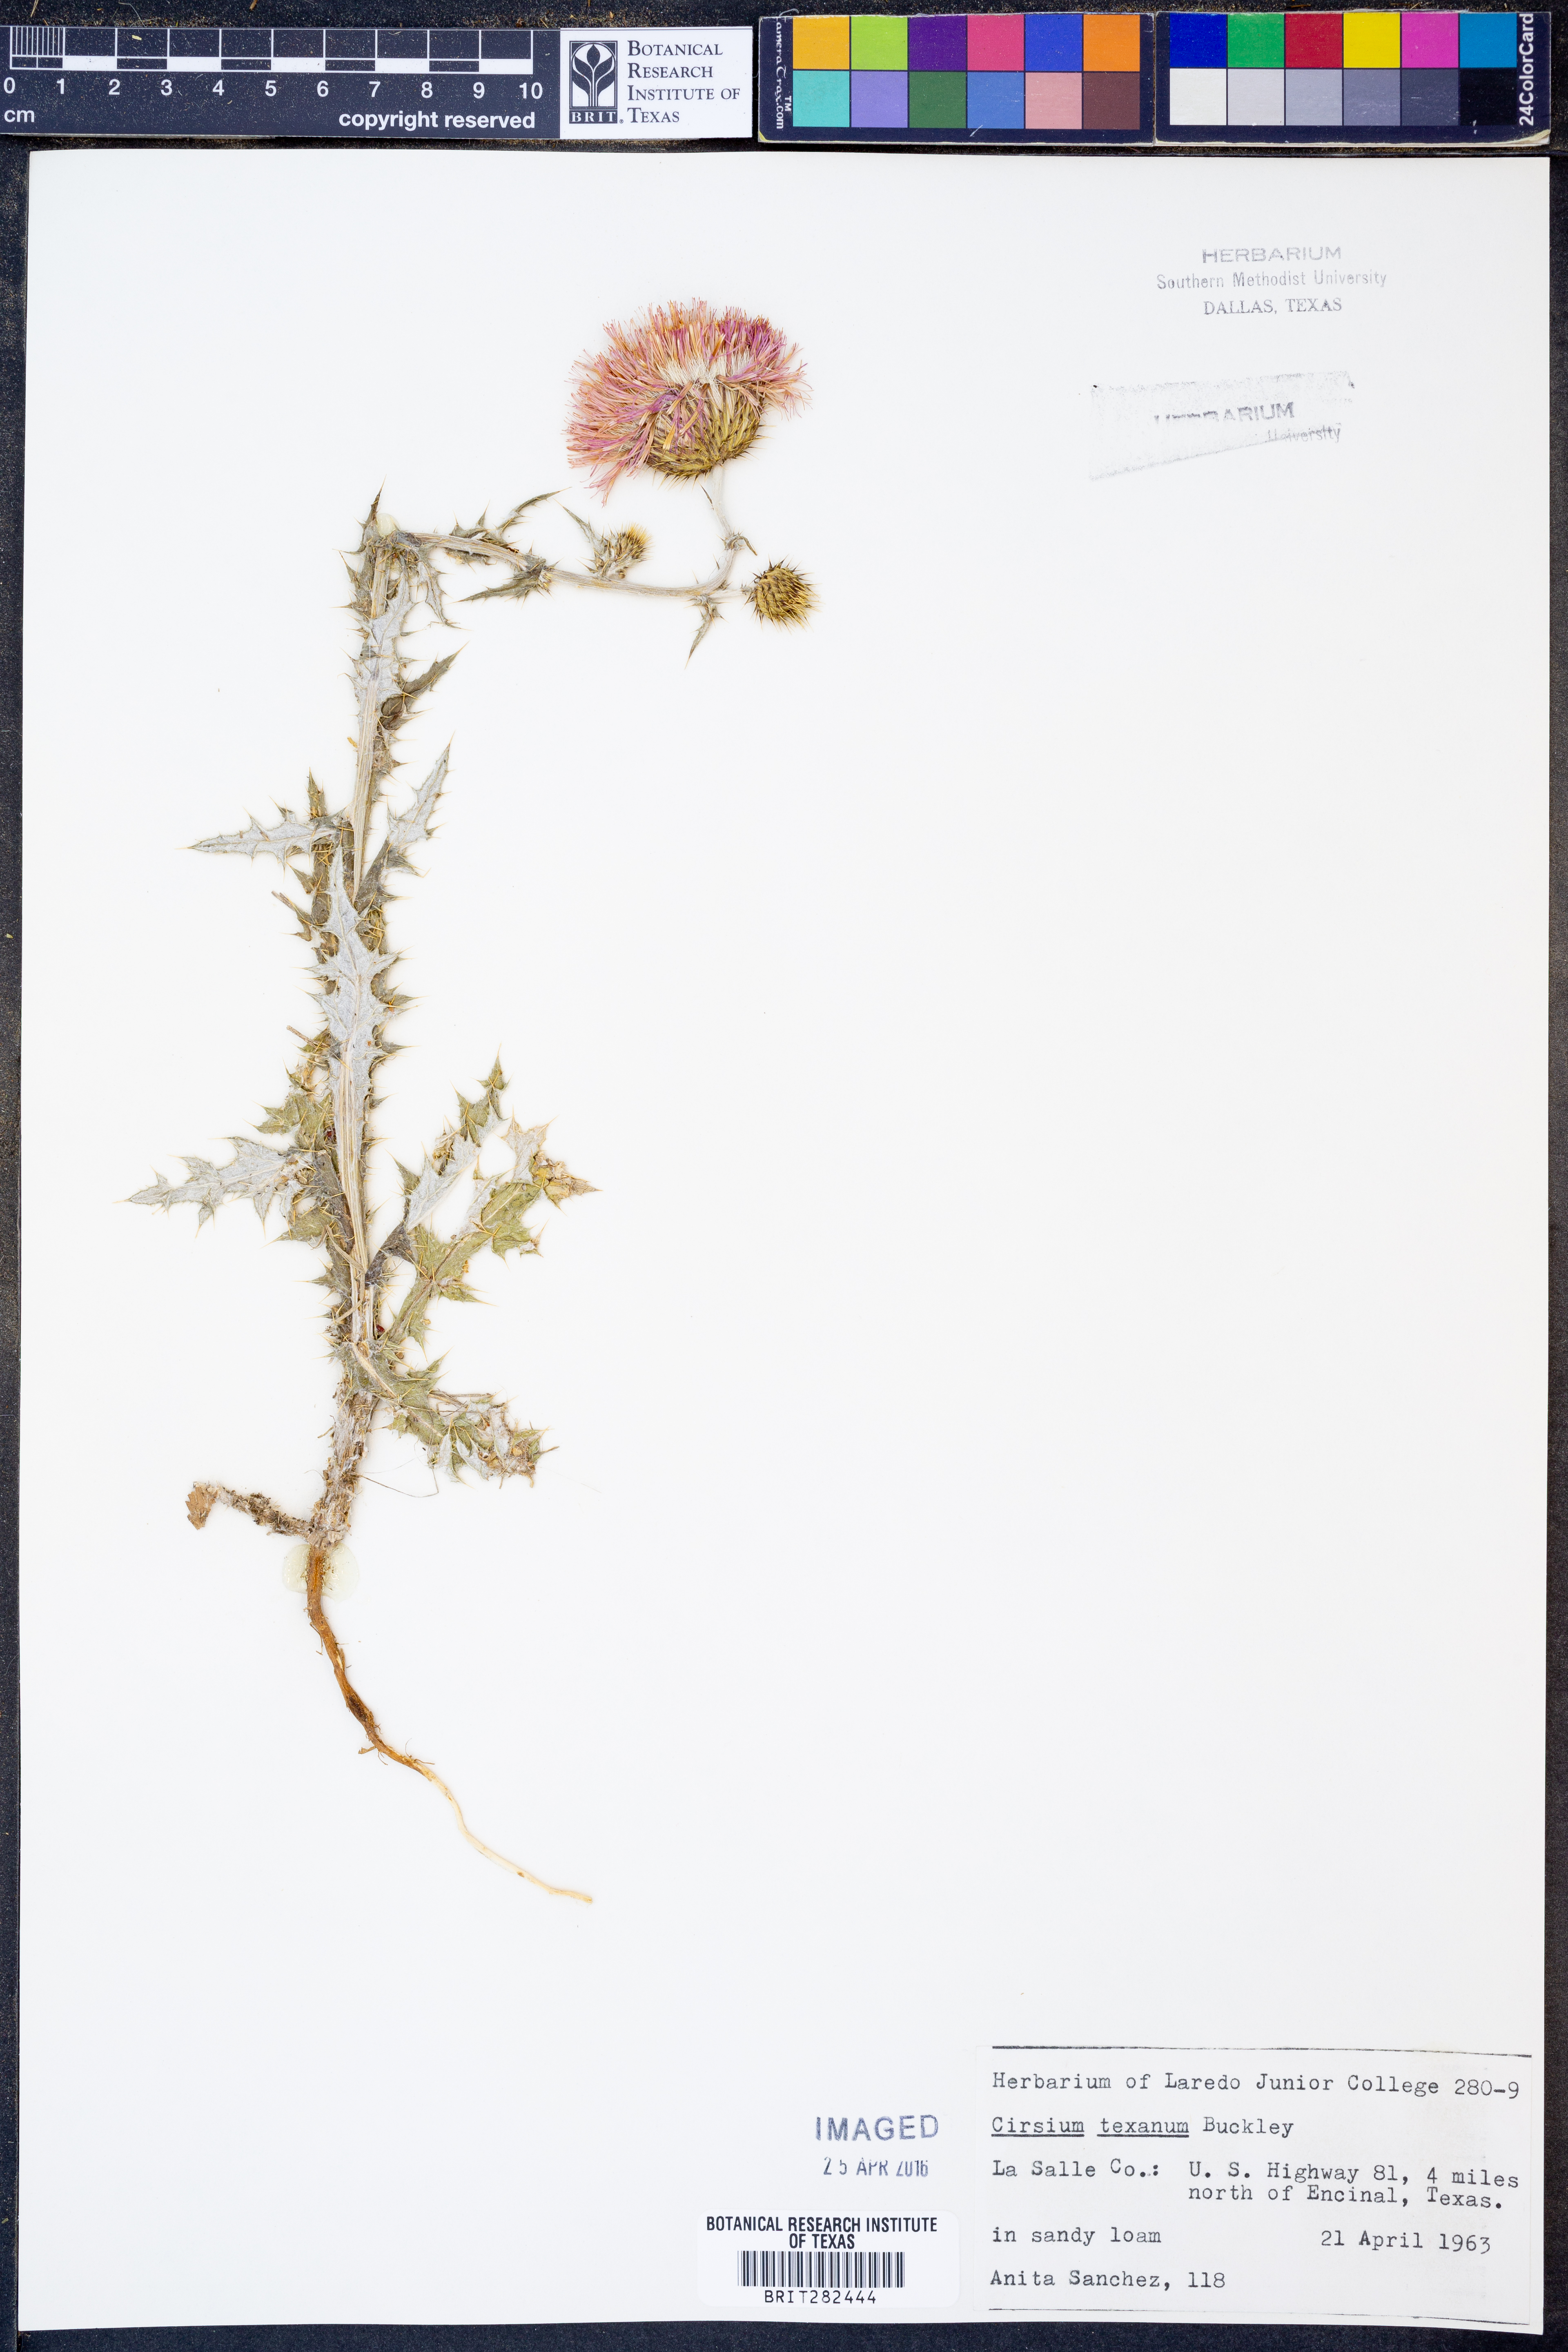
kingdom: Plantae
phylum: Tracheophyta
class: Magnoliopsida
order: Asterales
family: Asteraceae
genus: Cirsium
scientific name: Cirsium texanum
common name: Texas purple thistle
